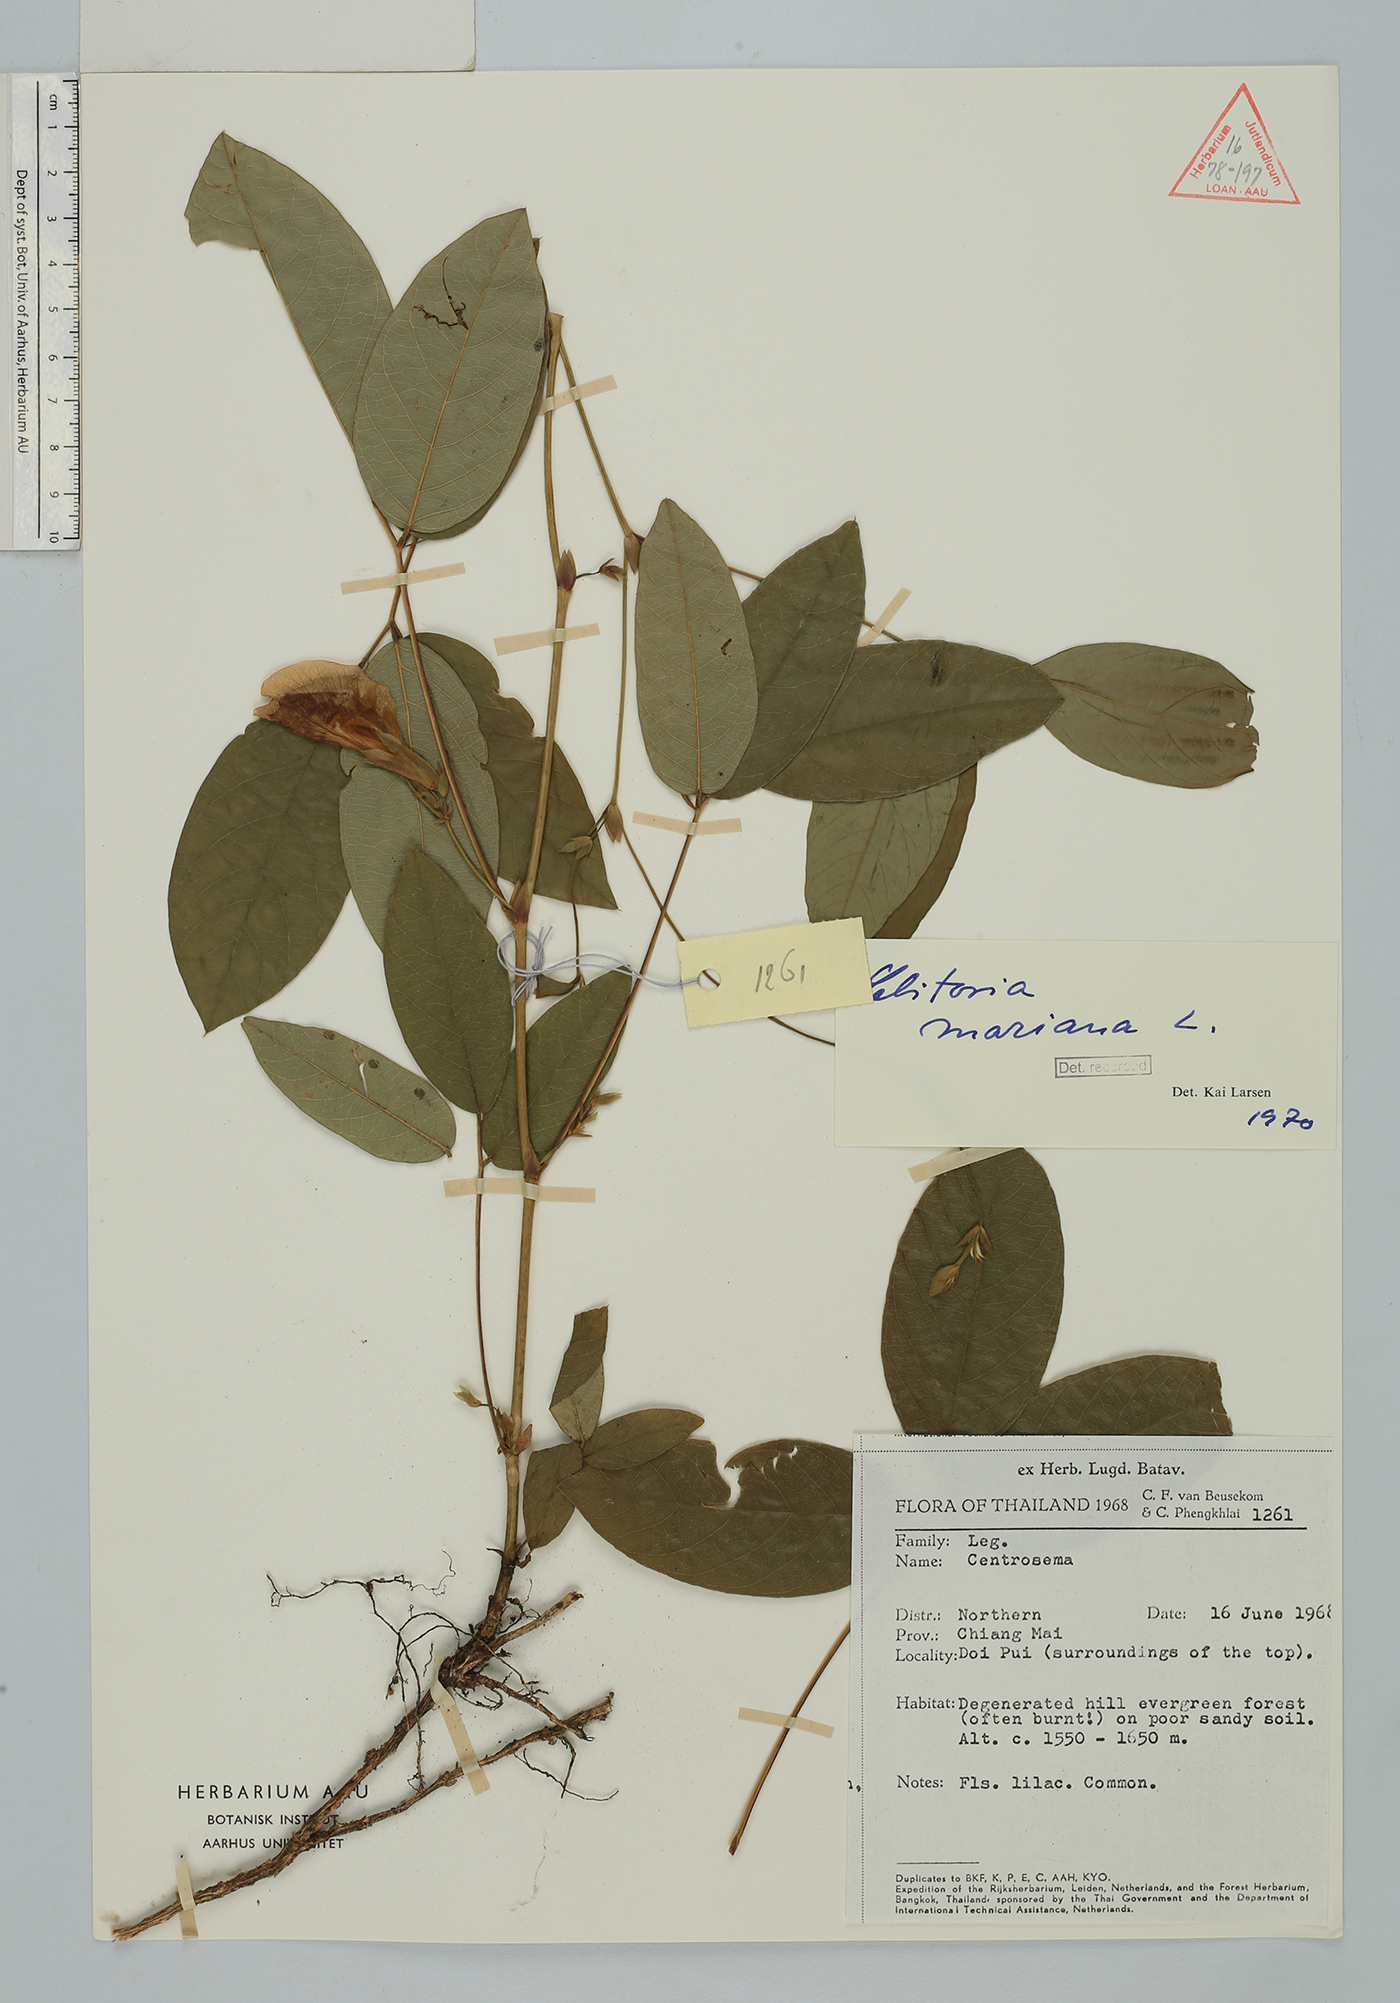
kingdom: Plantae
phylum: Tracheophyta
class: Magnoliopsida
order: Fabales
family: Fabaceae
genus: Clitoria
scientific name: Clitoria mariana
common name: Butterfly-pea
